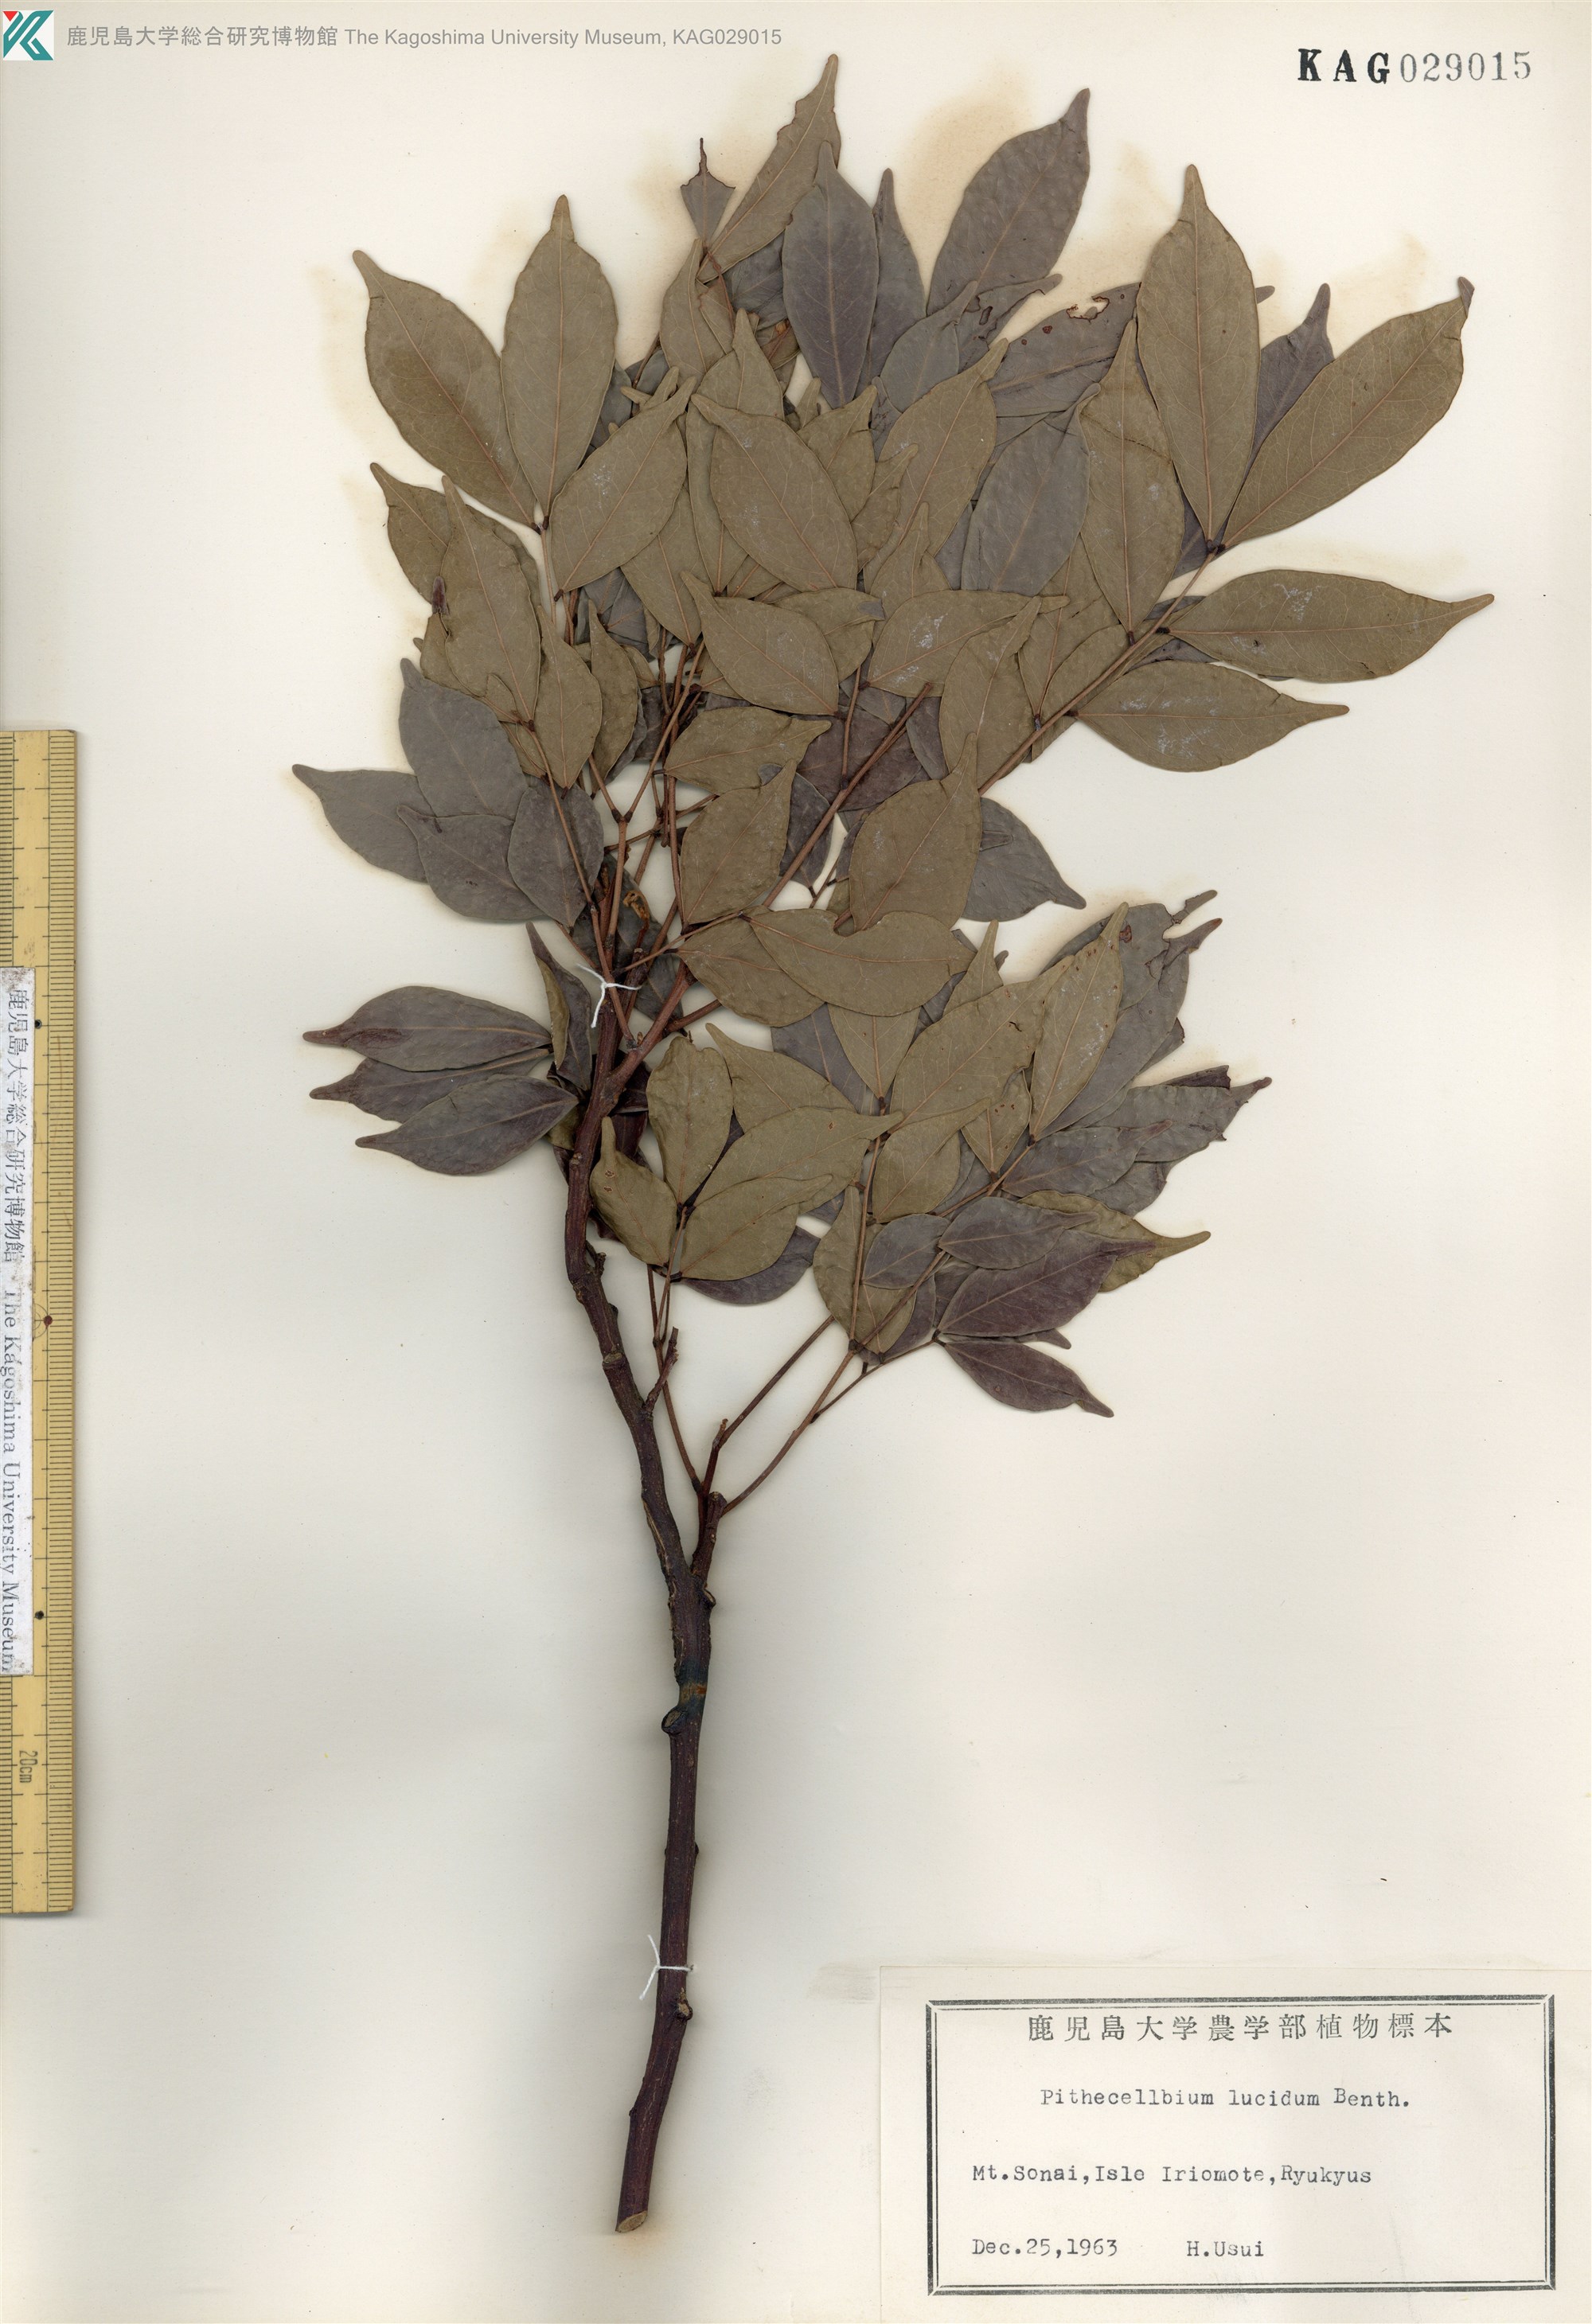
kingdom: Plantae
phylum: Tracheophyta
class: Magnoliopsida
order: Fabales
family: Fabaceae
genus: Archidendron
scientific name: Archidendron lucidum
